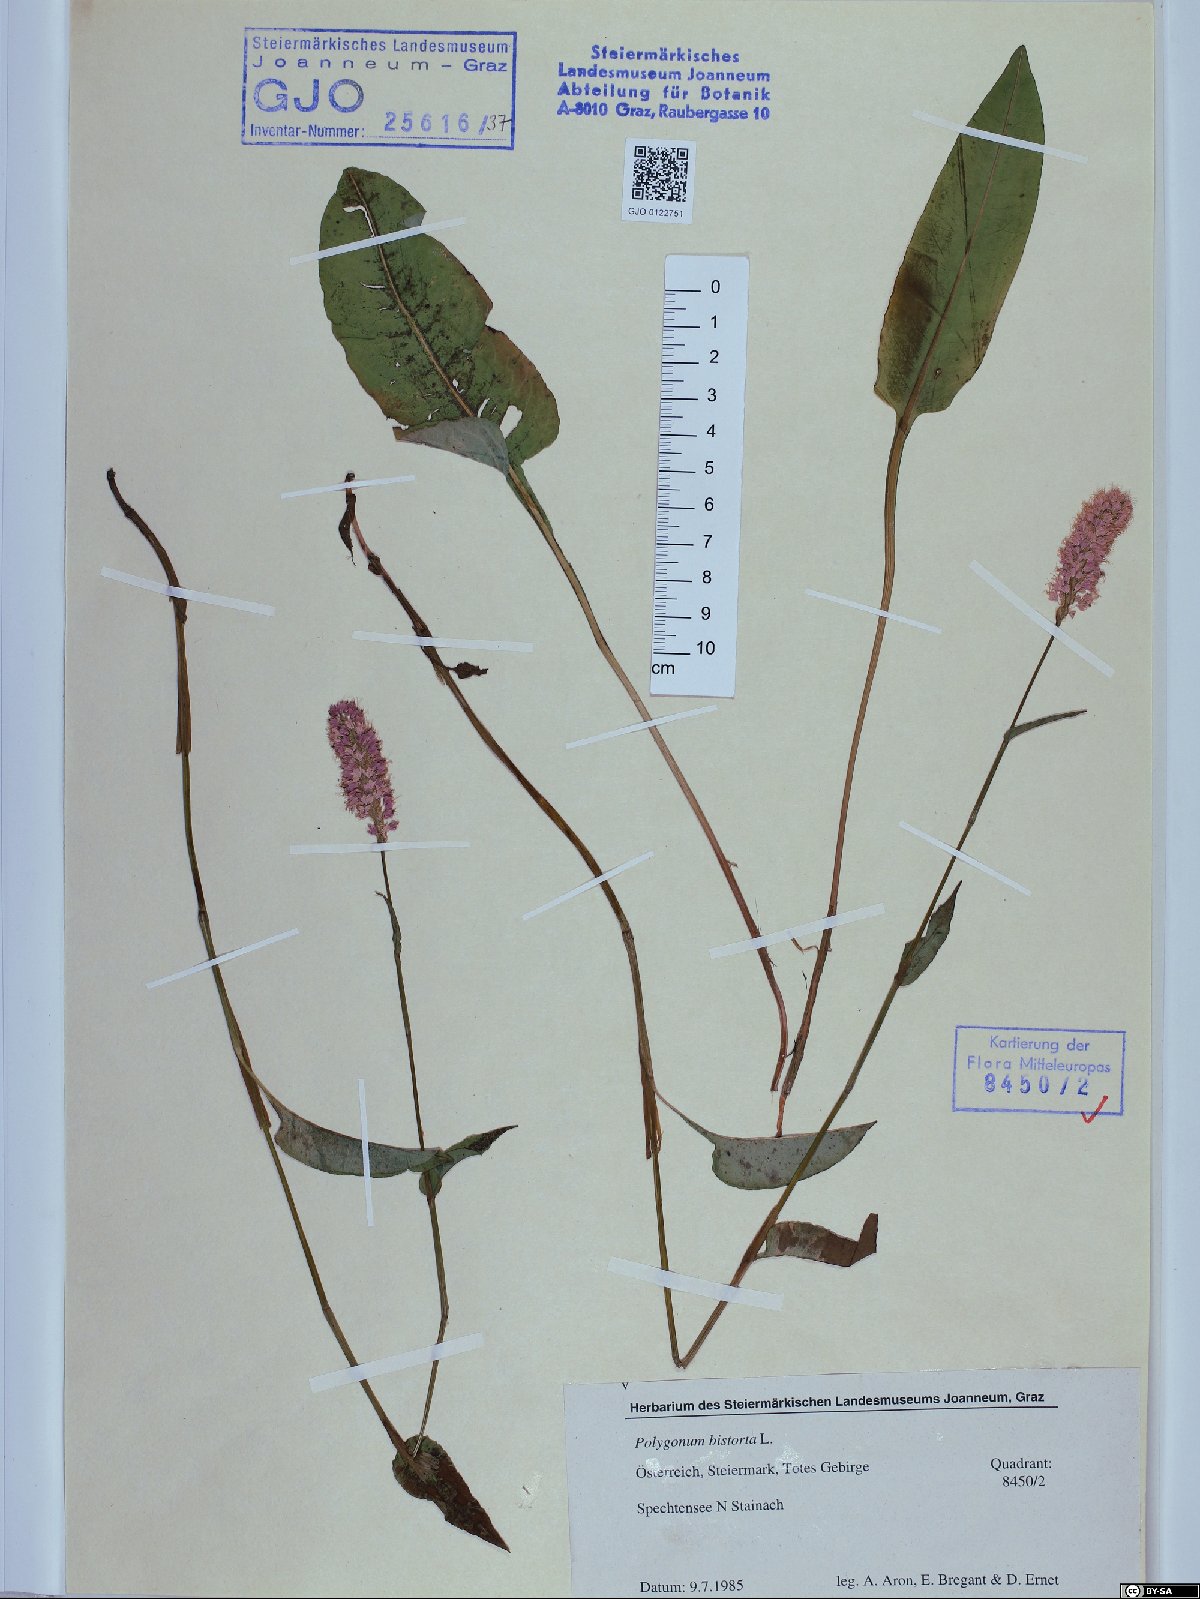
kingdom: Plantae
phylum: Tracheophyta
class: Magnoliopsida
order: Caryophyllales
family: Polygonaceae
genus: Bistorta
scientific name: Bistorta officinalis
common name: Common bistort
